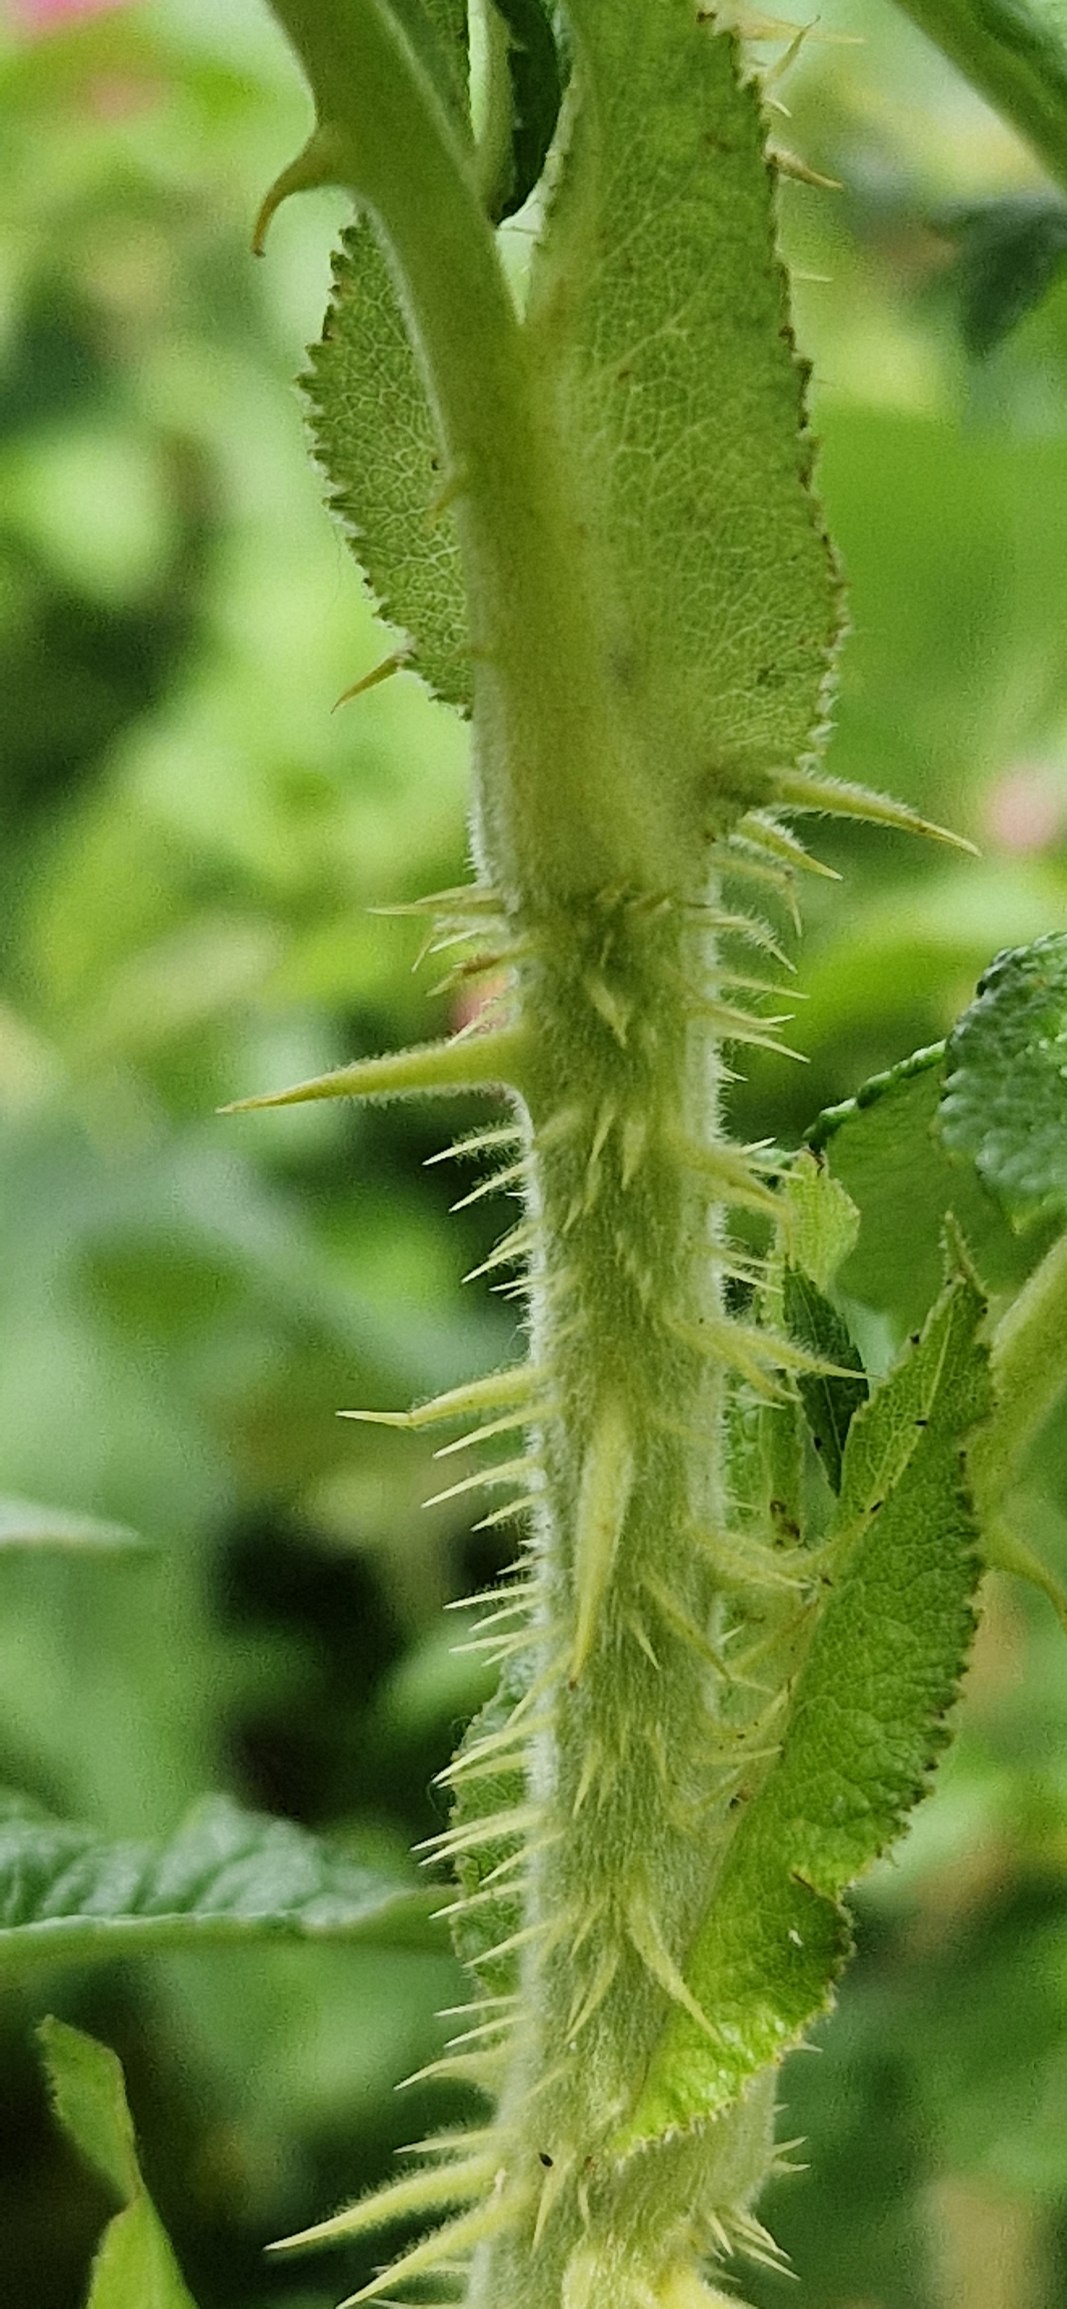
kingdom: Plantae
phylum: Tracheophyta
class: Magnoliopsida
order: Rosales
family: Rosaceae
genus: Rosa
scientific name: Rosa rugosa
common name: Rynket rose
